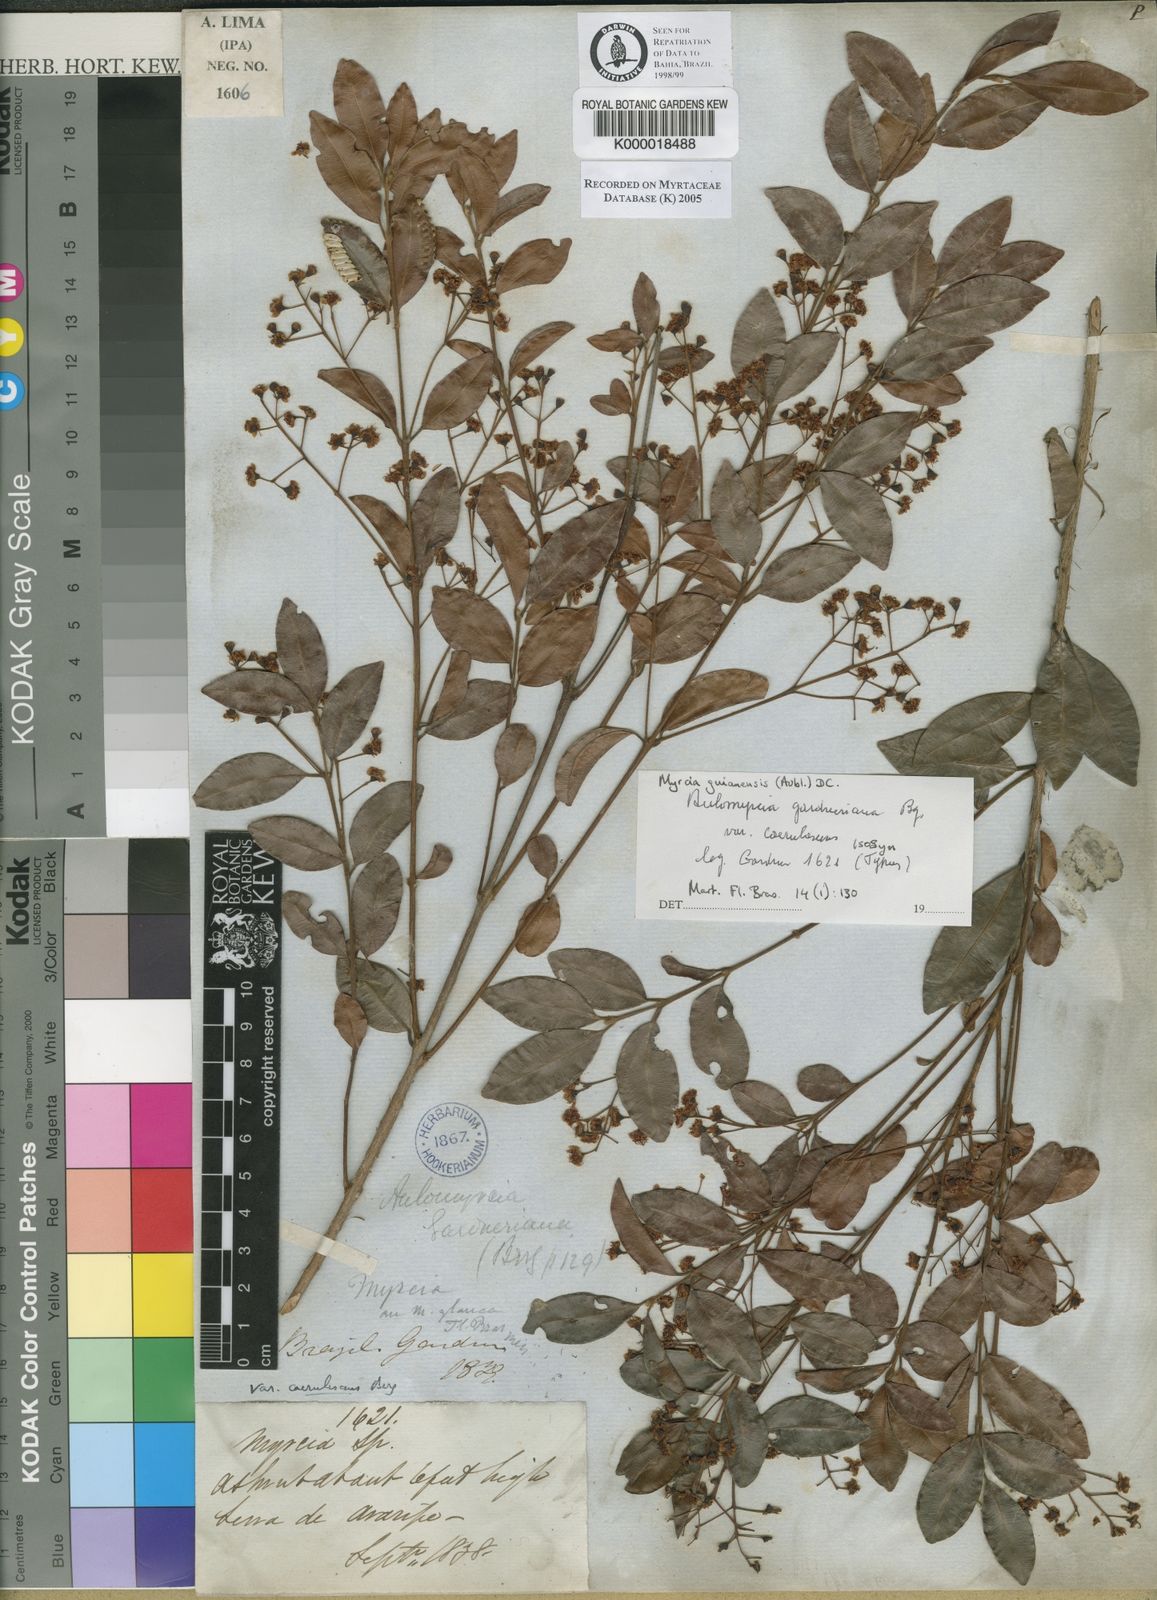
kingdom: Plantae
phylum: Tracheophyta
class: Magnoliopsida
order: Myrtales
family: Myrtaceae
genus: Myrcia
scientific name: Myrcia guianensis
